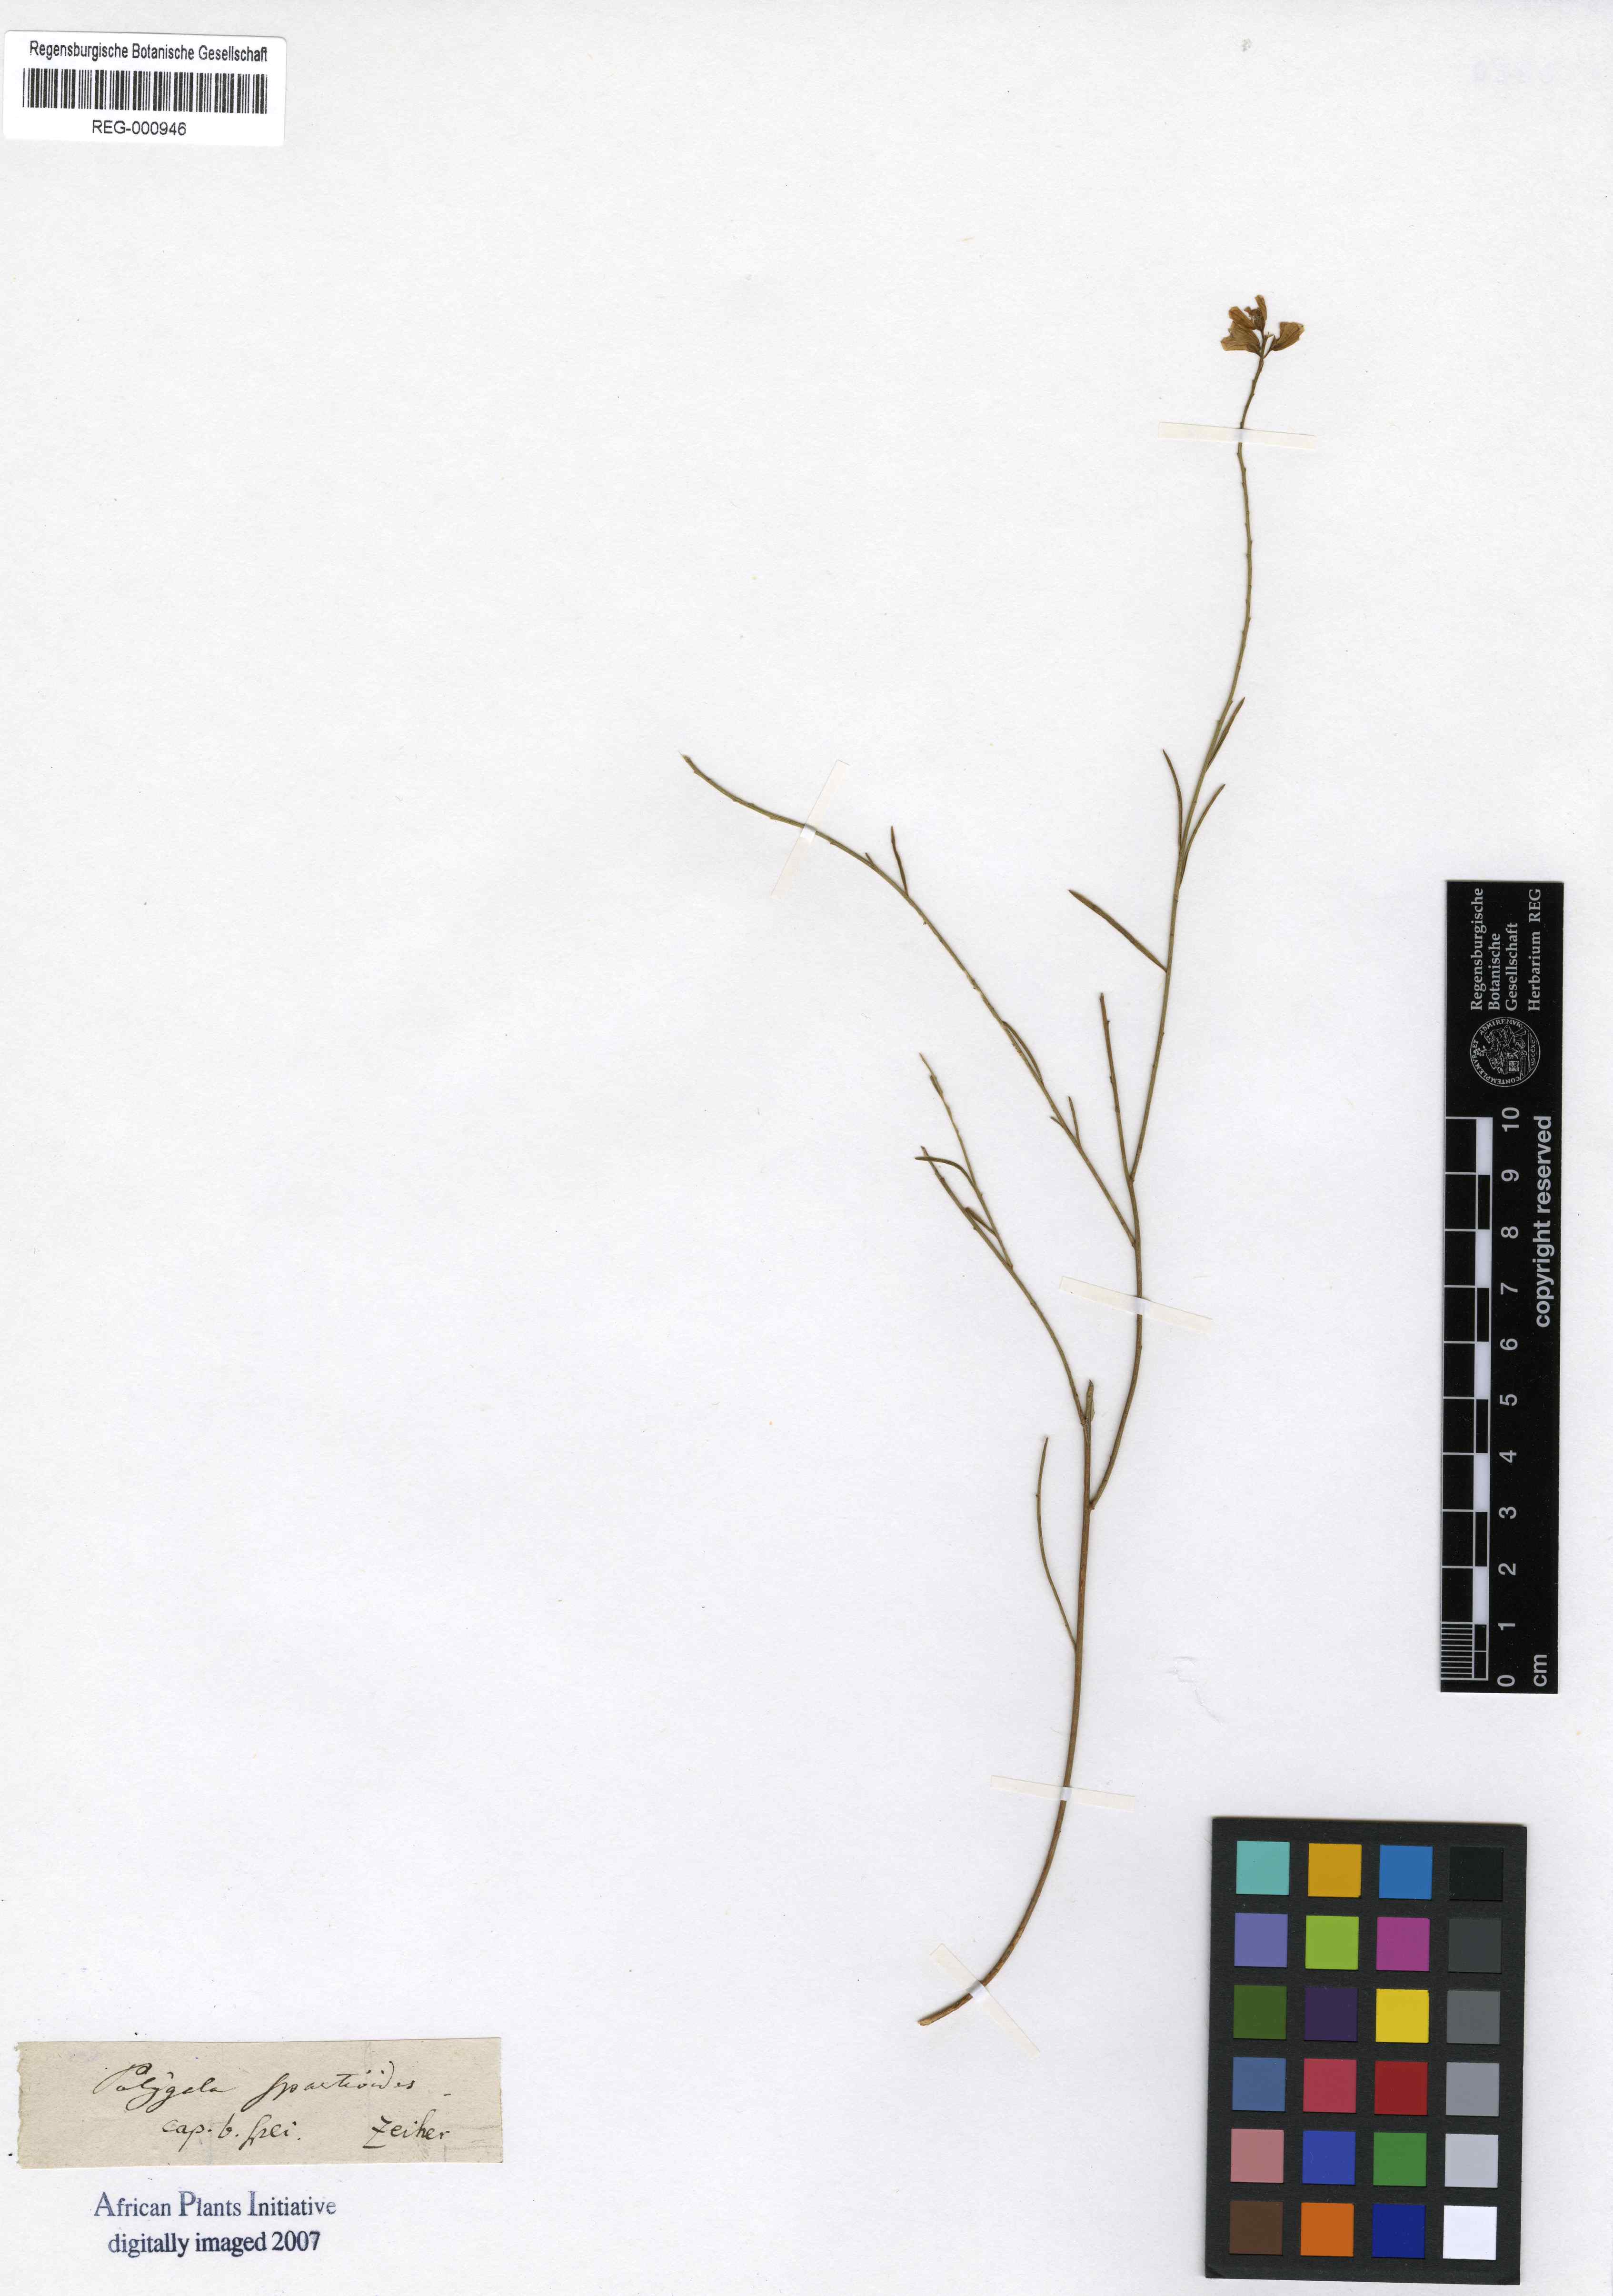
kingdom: Plantae
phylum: Tracheophyta
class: Magnoliopsida
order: Fabales
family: Polygalaceae
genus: Polygala
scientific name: Polygala virgata
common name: Milkwort
